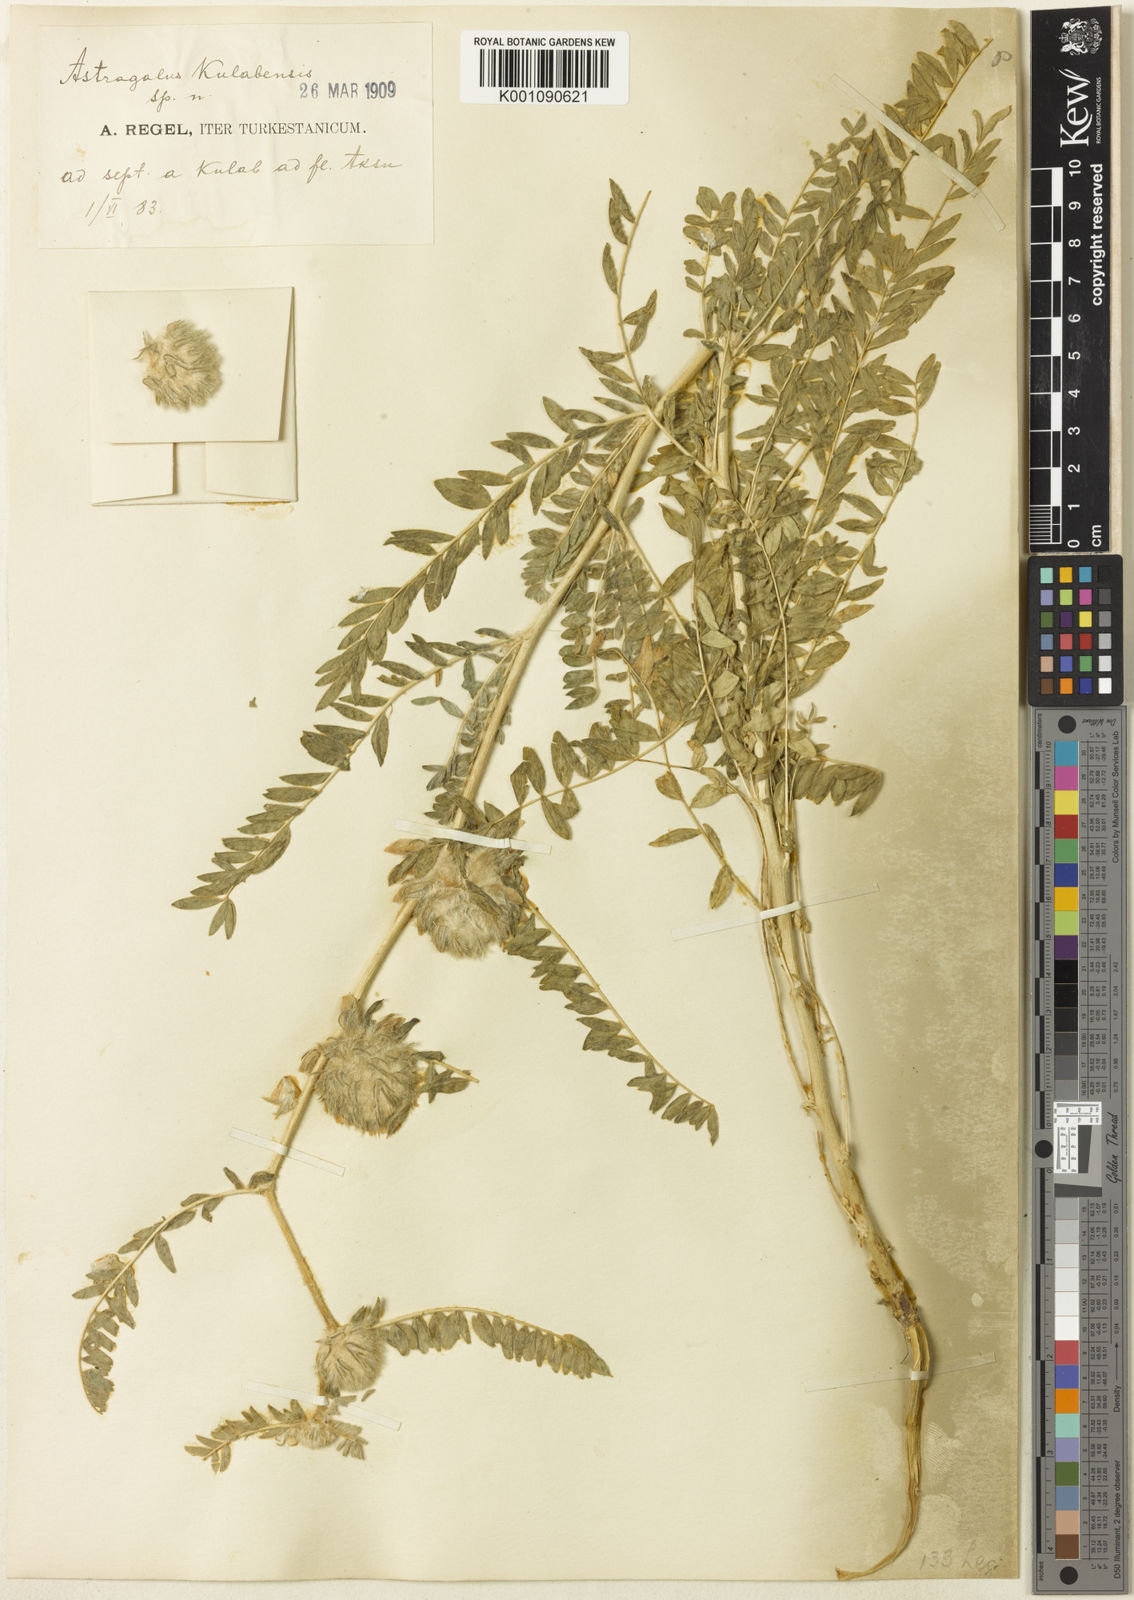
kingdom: Plantae
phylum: Tracheophyta
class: Magnoliopsida
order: Fabales
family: Fabaceae
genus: Astragalus
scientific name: Astragalus
